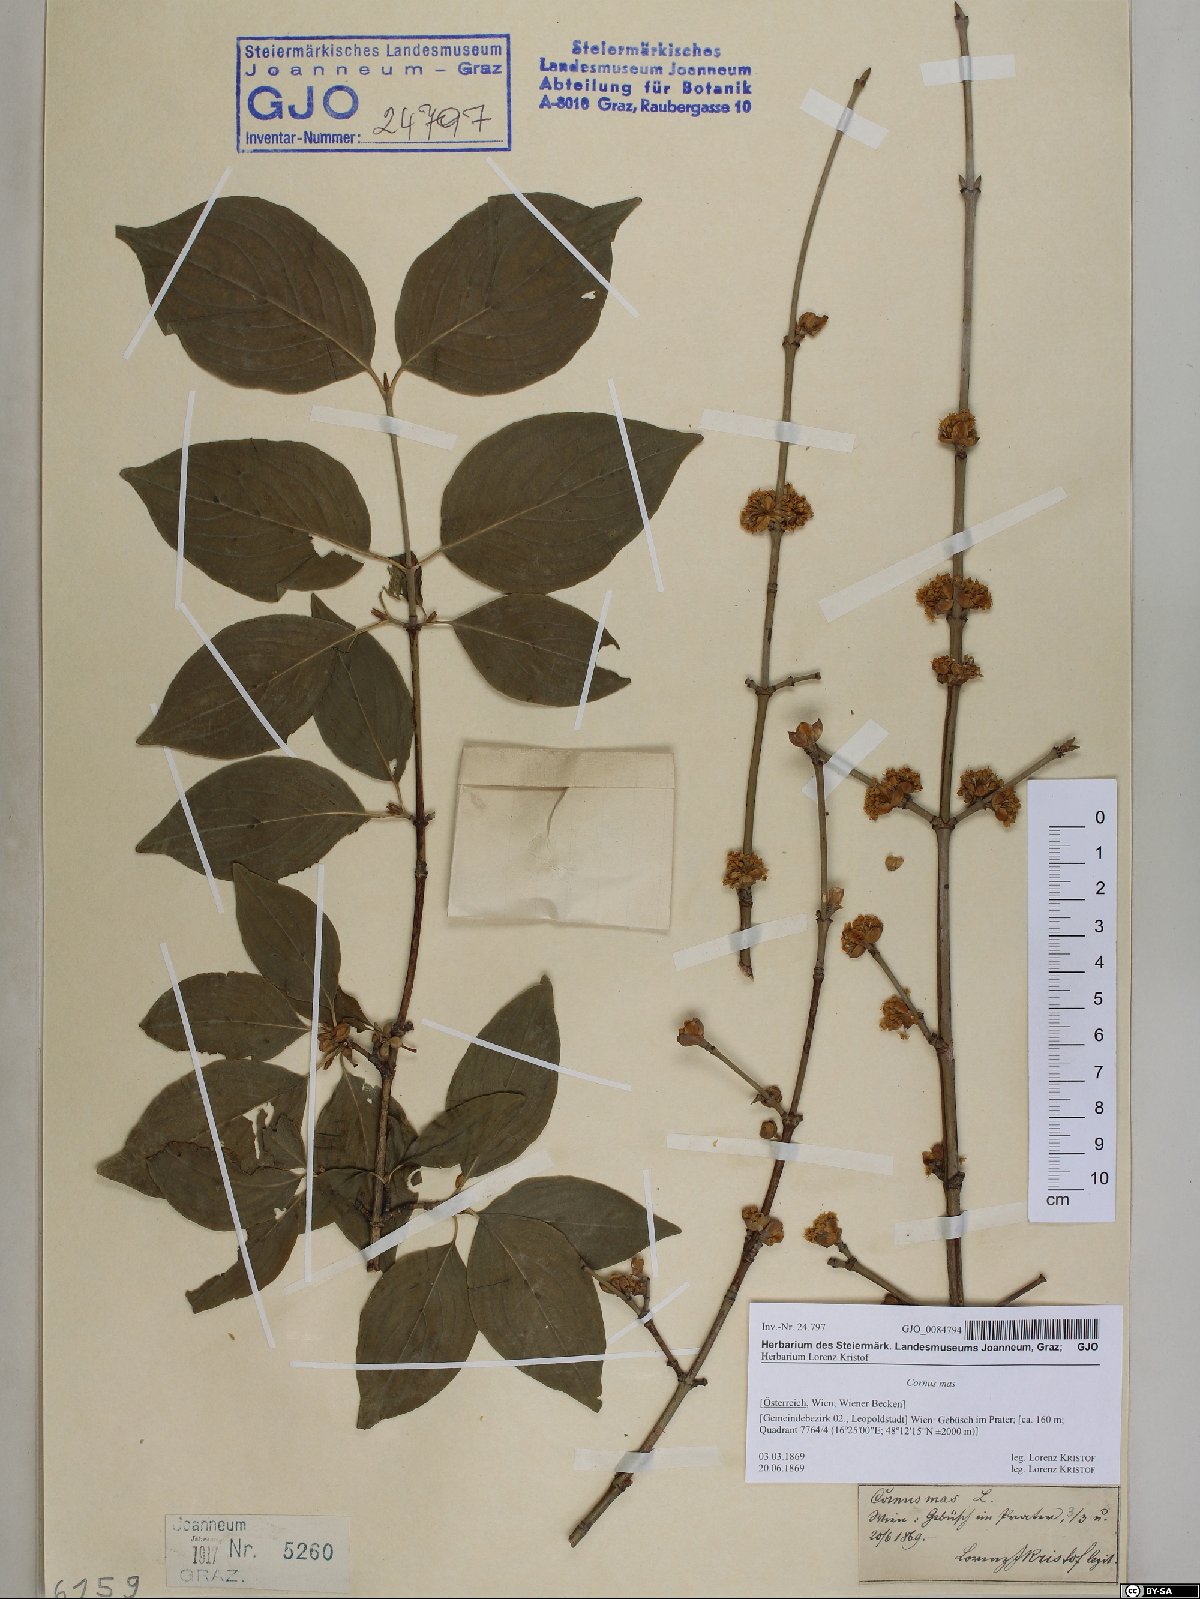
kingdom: Plantae
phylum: Tracheophyta
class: Magnoliopsida
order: Cornales
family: Cornaceae
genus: Cornus
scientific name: Cornus mas
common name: Cornelian-cherry
